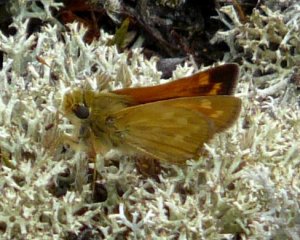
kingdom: Animalia
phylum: Arthropoda
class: Insecta
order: Lepidoptera
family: Hesperiidae
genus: Hesperia
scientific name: Hesperia sassacus
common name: Sassacus Skipper
